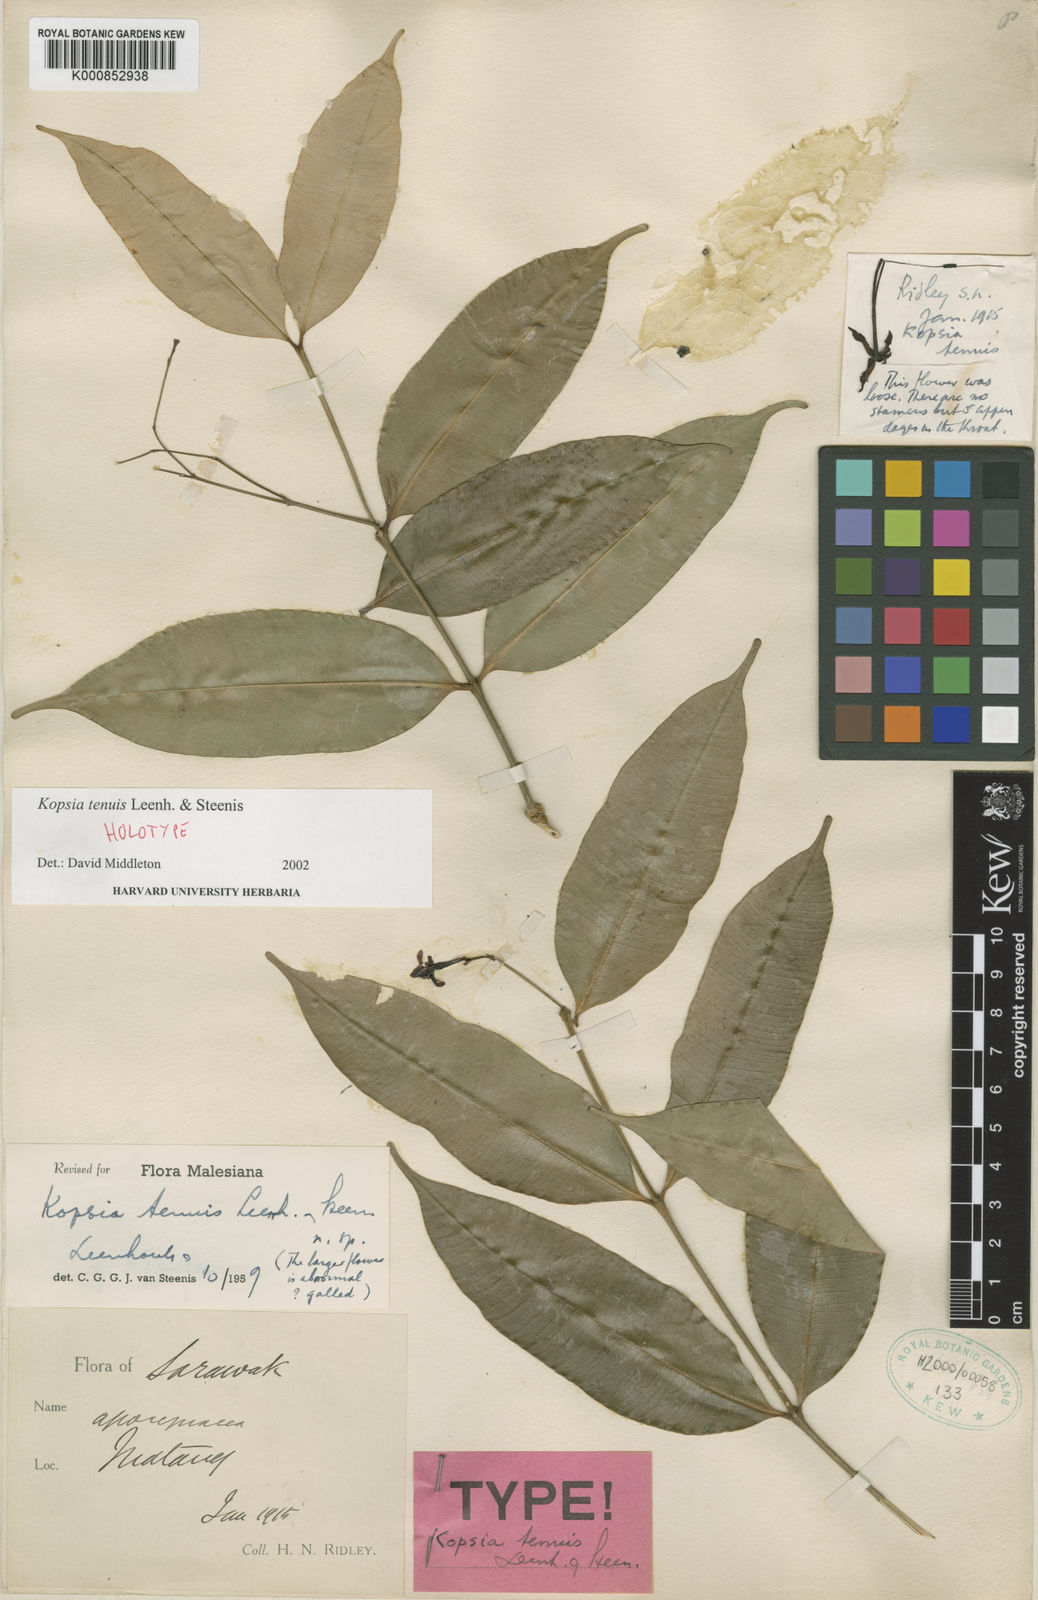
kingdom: Plantae
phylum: Tracheophyta
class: Magnoliopsida
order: Gentianales
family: Apocynaceae
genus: Kopsia
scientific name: Kopsia tenuis
